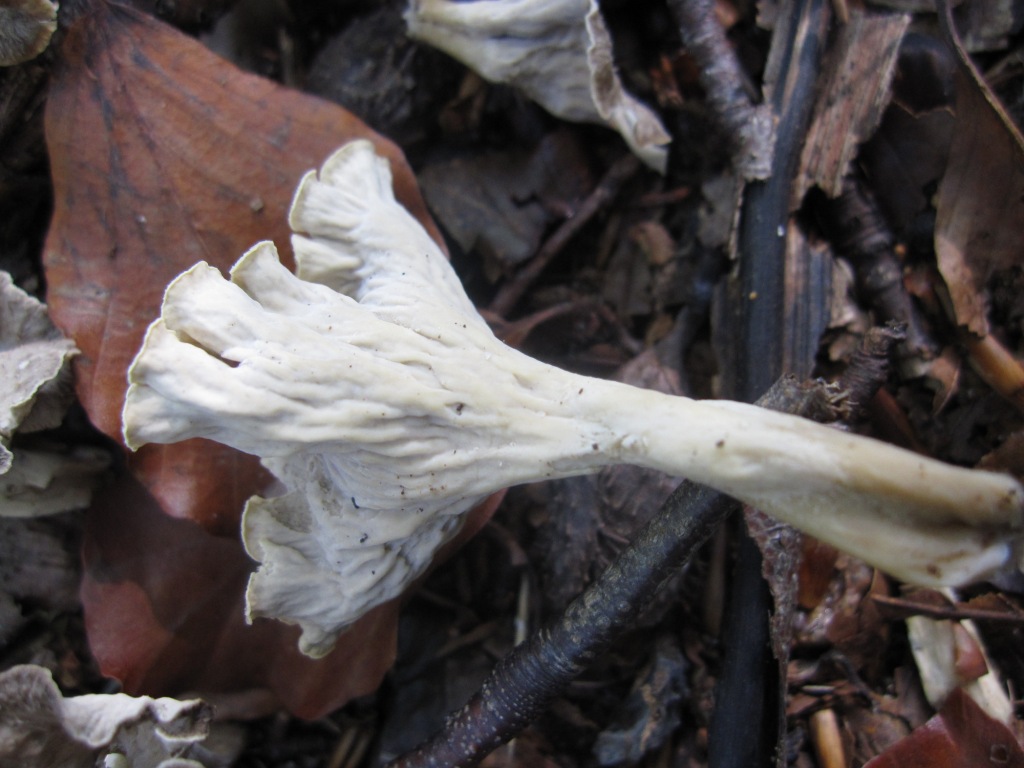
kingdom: Fungi
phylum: Basidiomycota
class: Agaricomycetes
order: Cantharellales
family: Hydnaceae
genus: Craterellus
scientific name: Craterellus undulatus
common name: liden kantarel
